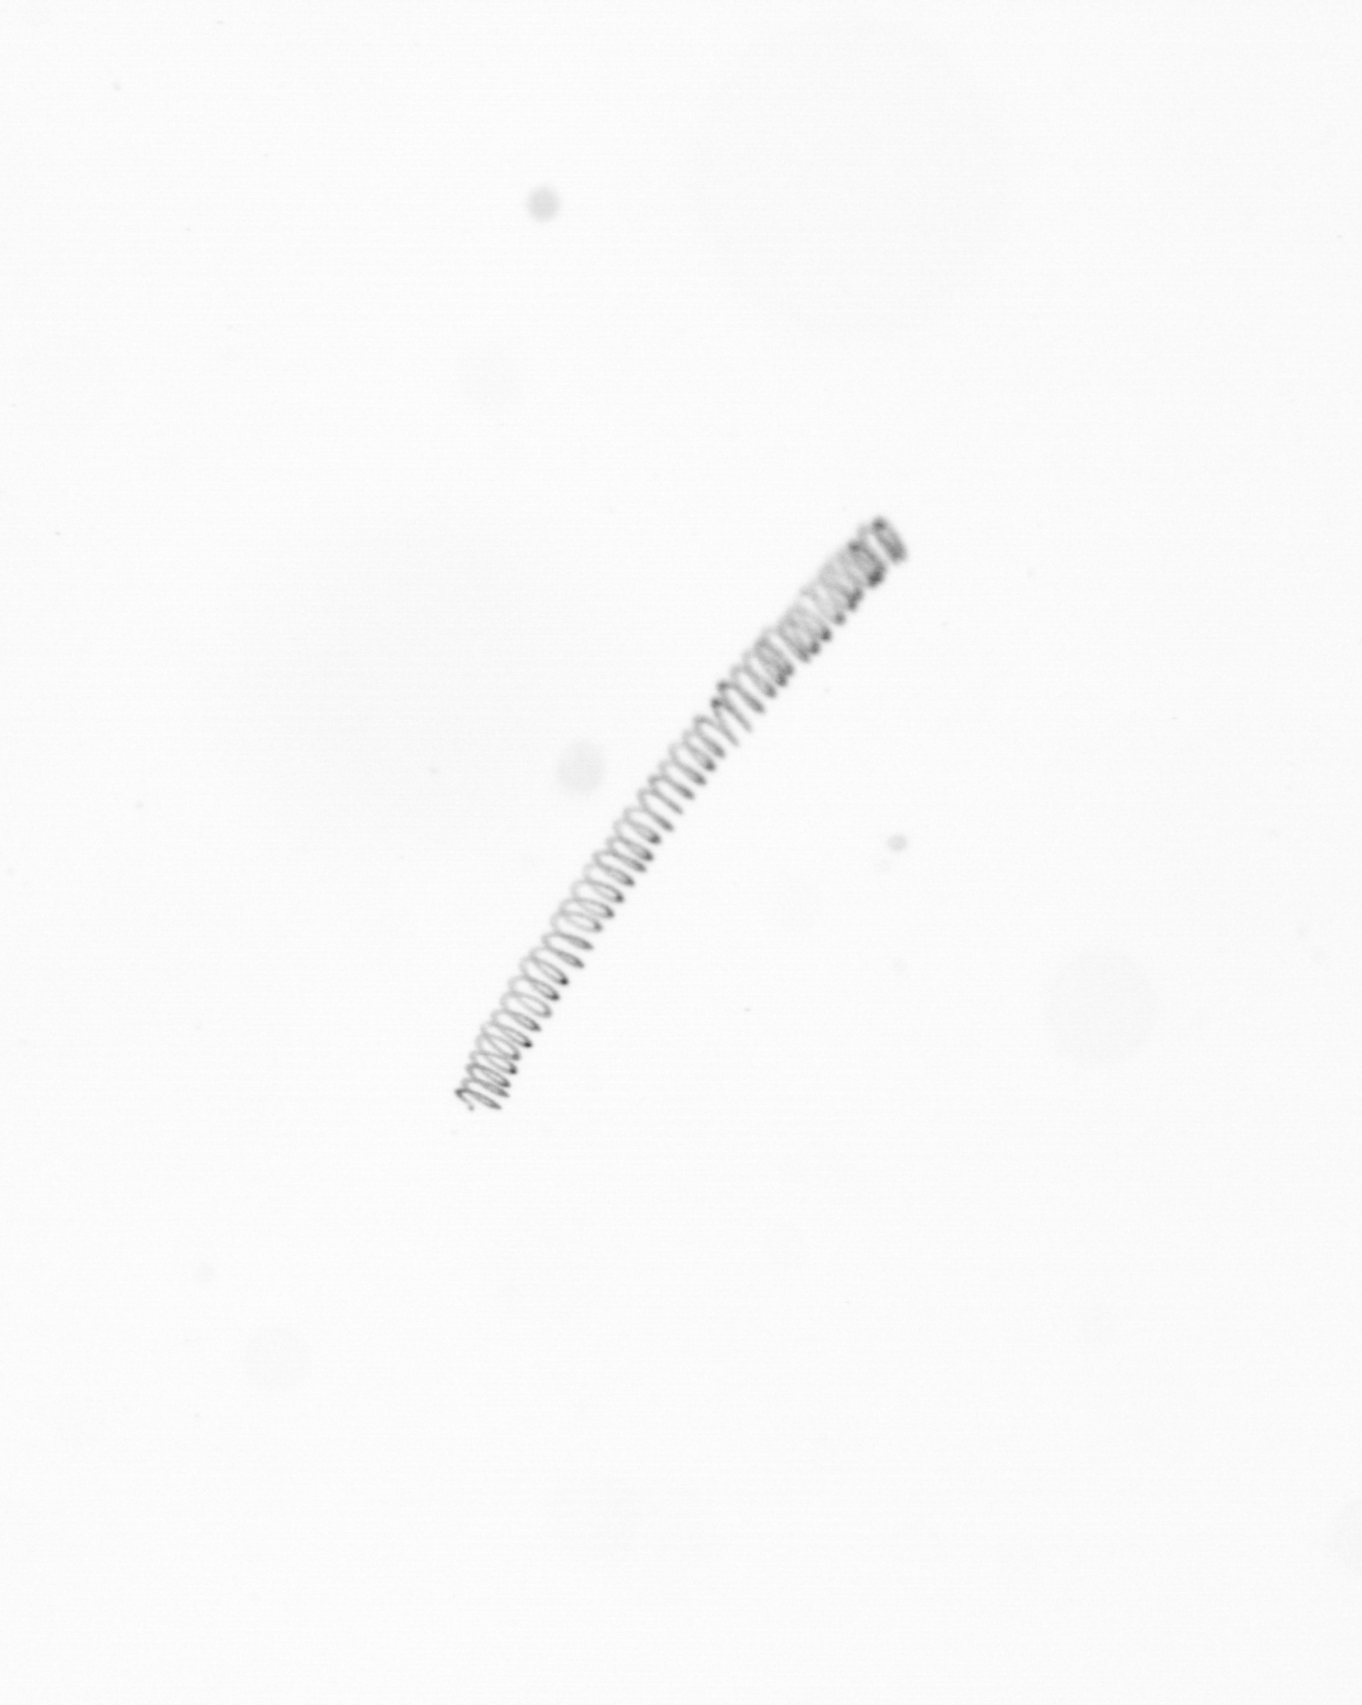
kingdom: Chromista
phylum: Ochrophyta
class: Bacillariophyceae
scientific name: Bacillariophyceae
